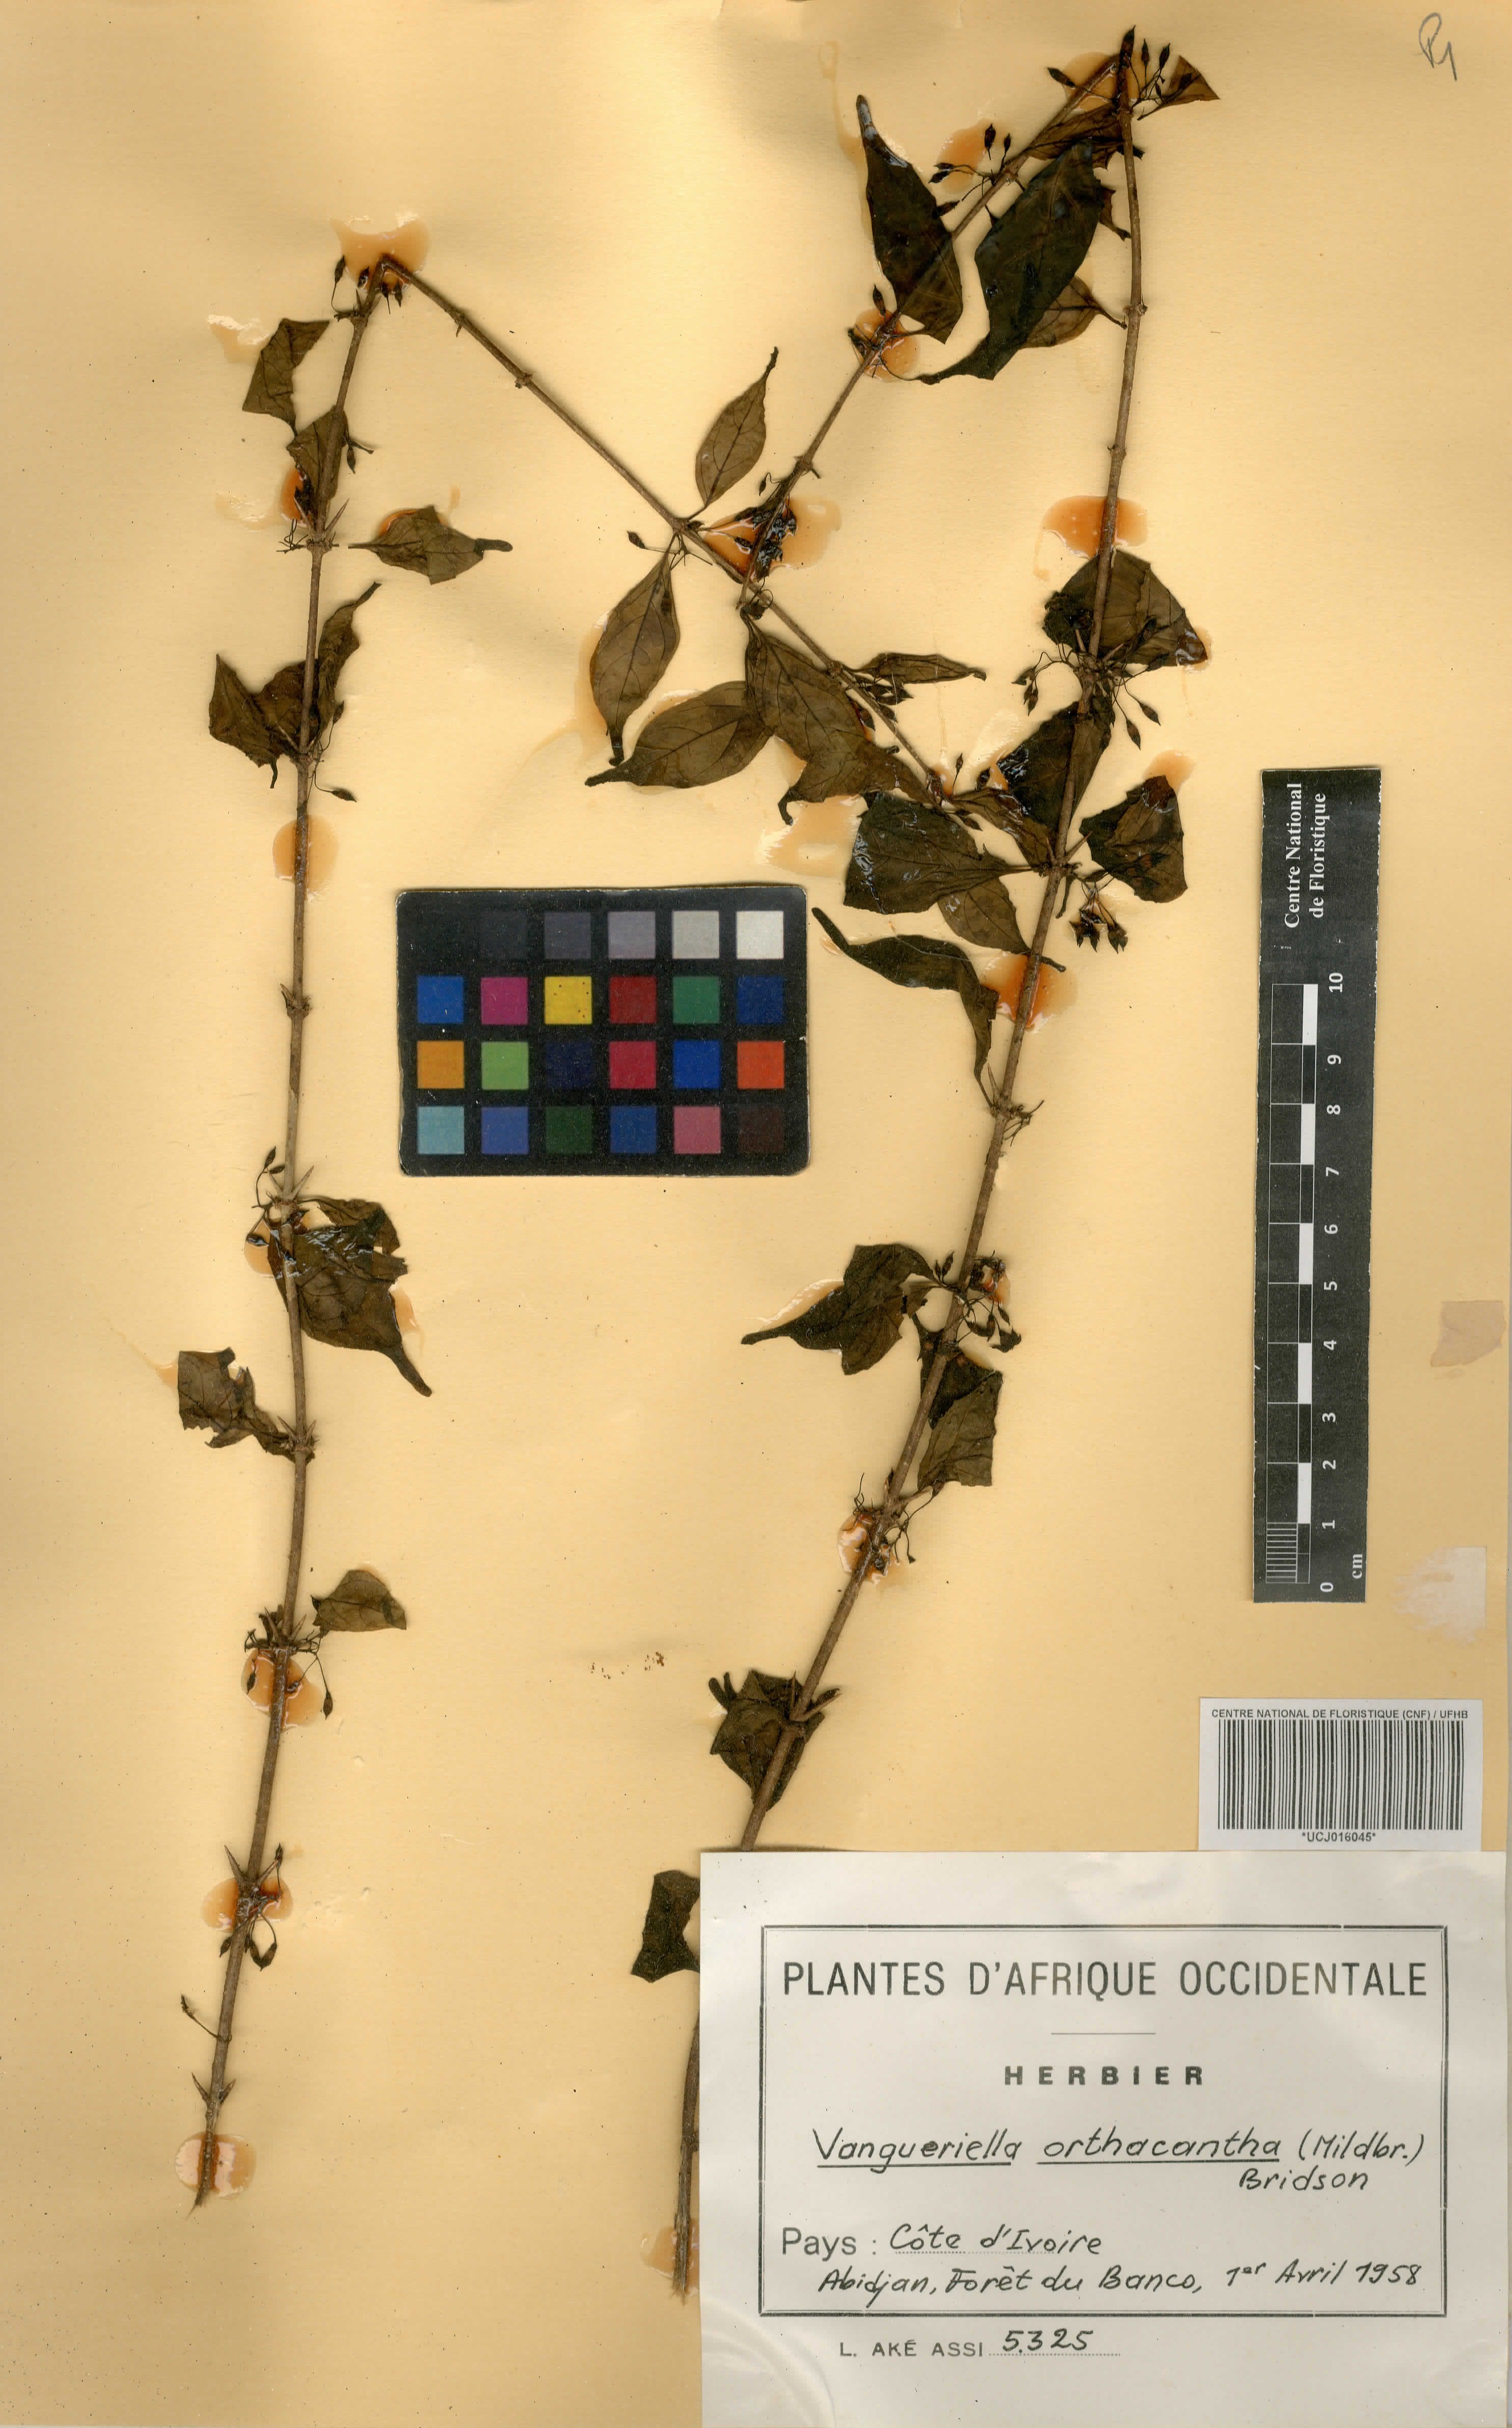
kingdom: Plantae
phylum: Tracheophyta
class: Magnoliopsida
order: Gentianales
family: Rubiaceae
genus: Vangueriella
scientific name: Vangueriella orthacantha
